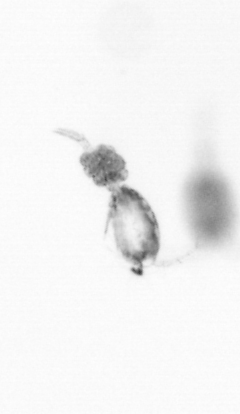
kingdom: Animalia
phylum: Arthropoda
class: Copepoda
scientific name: Copepoda
